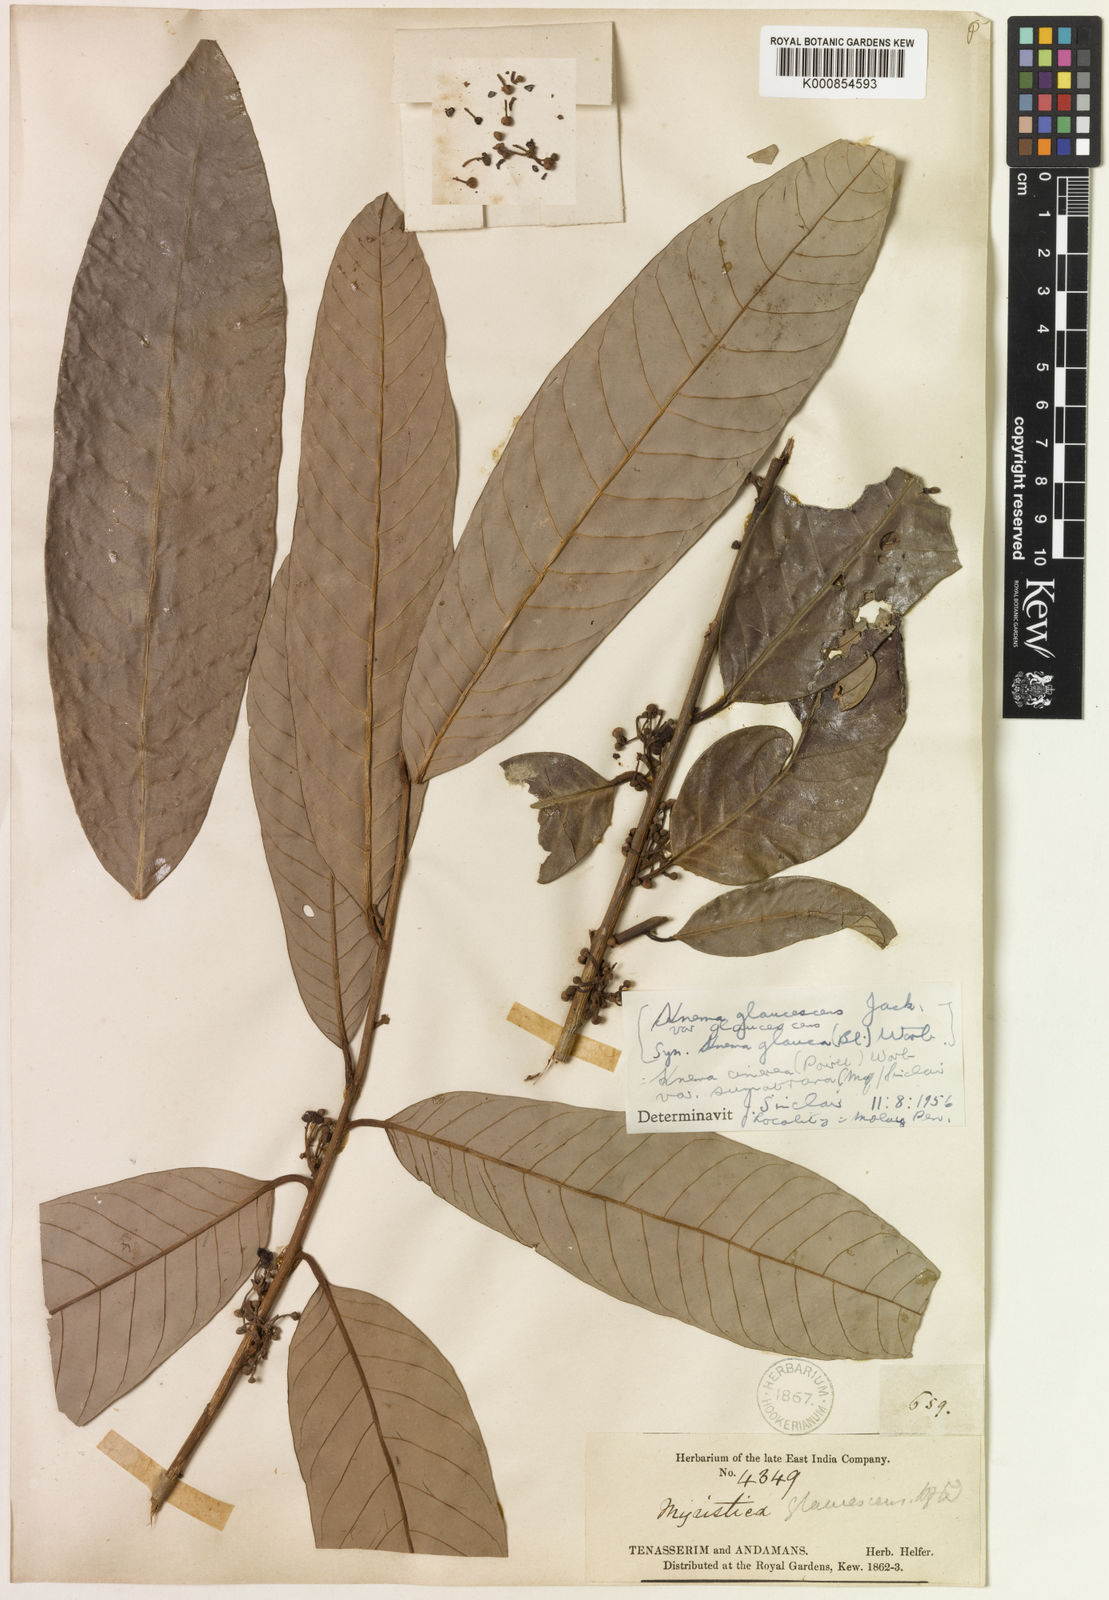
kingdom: Plantae
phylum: Tracheophyta
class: Magnoliopsida
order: Magnoliales
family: Myristicaceae
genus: Knema
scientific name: Knema glaucescens
